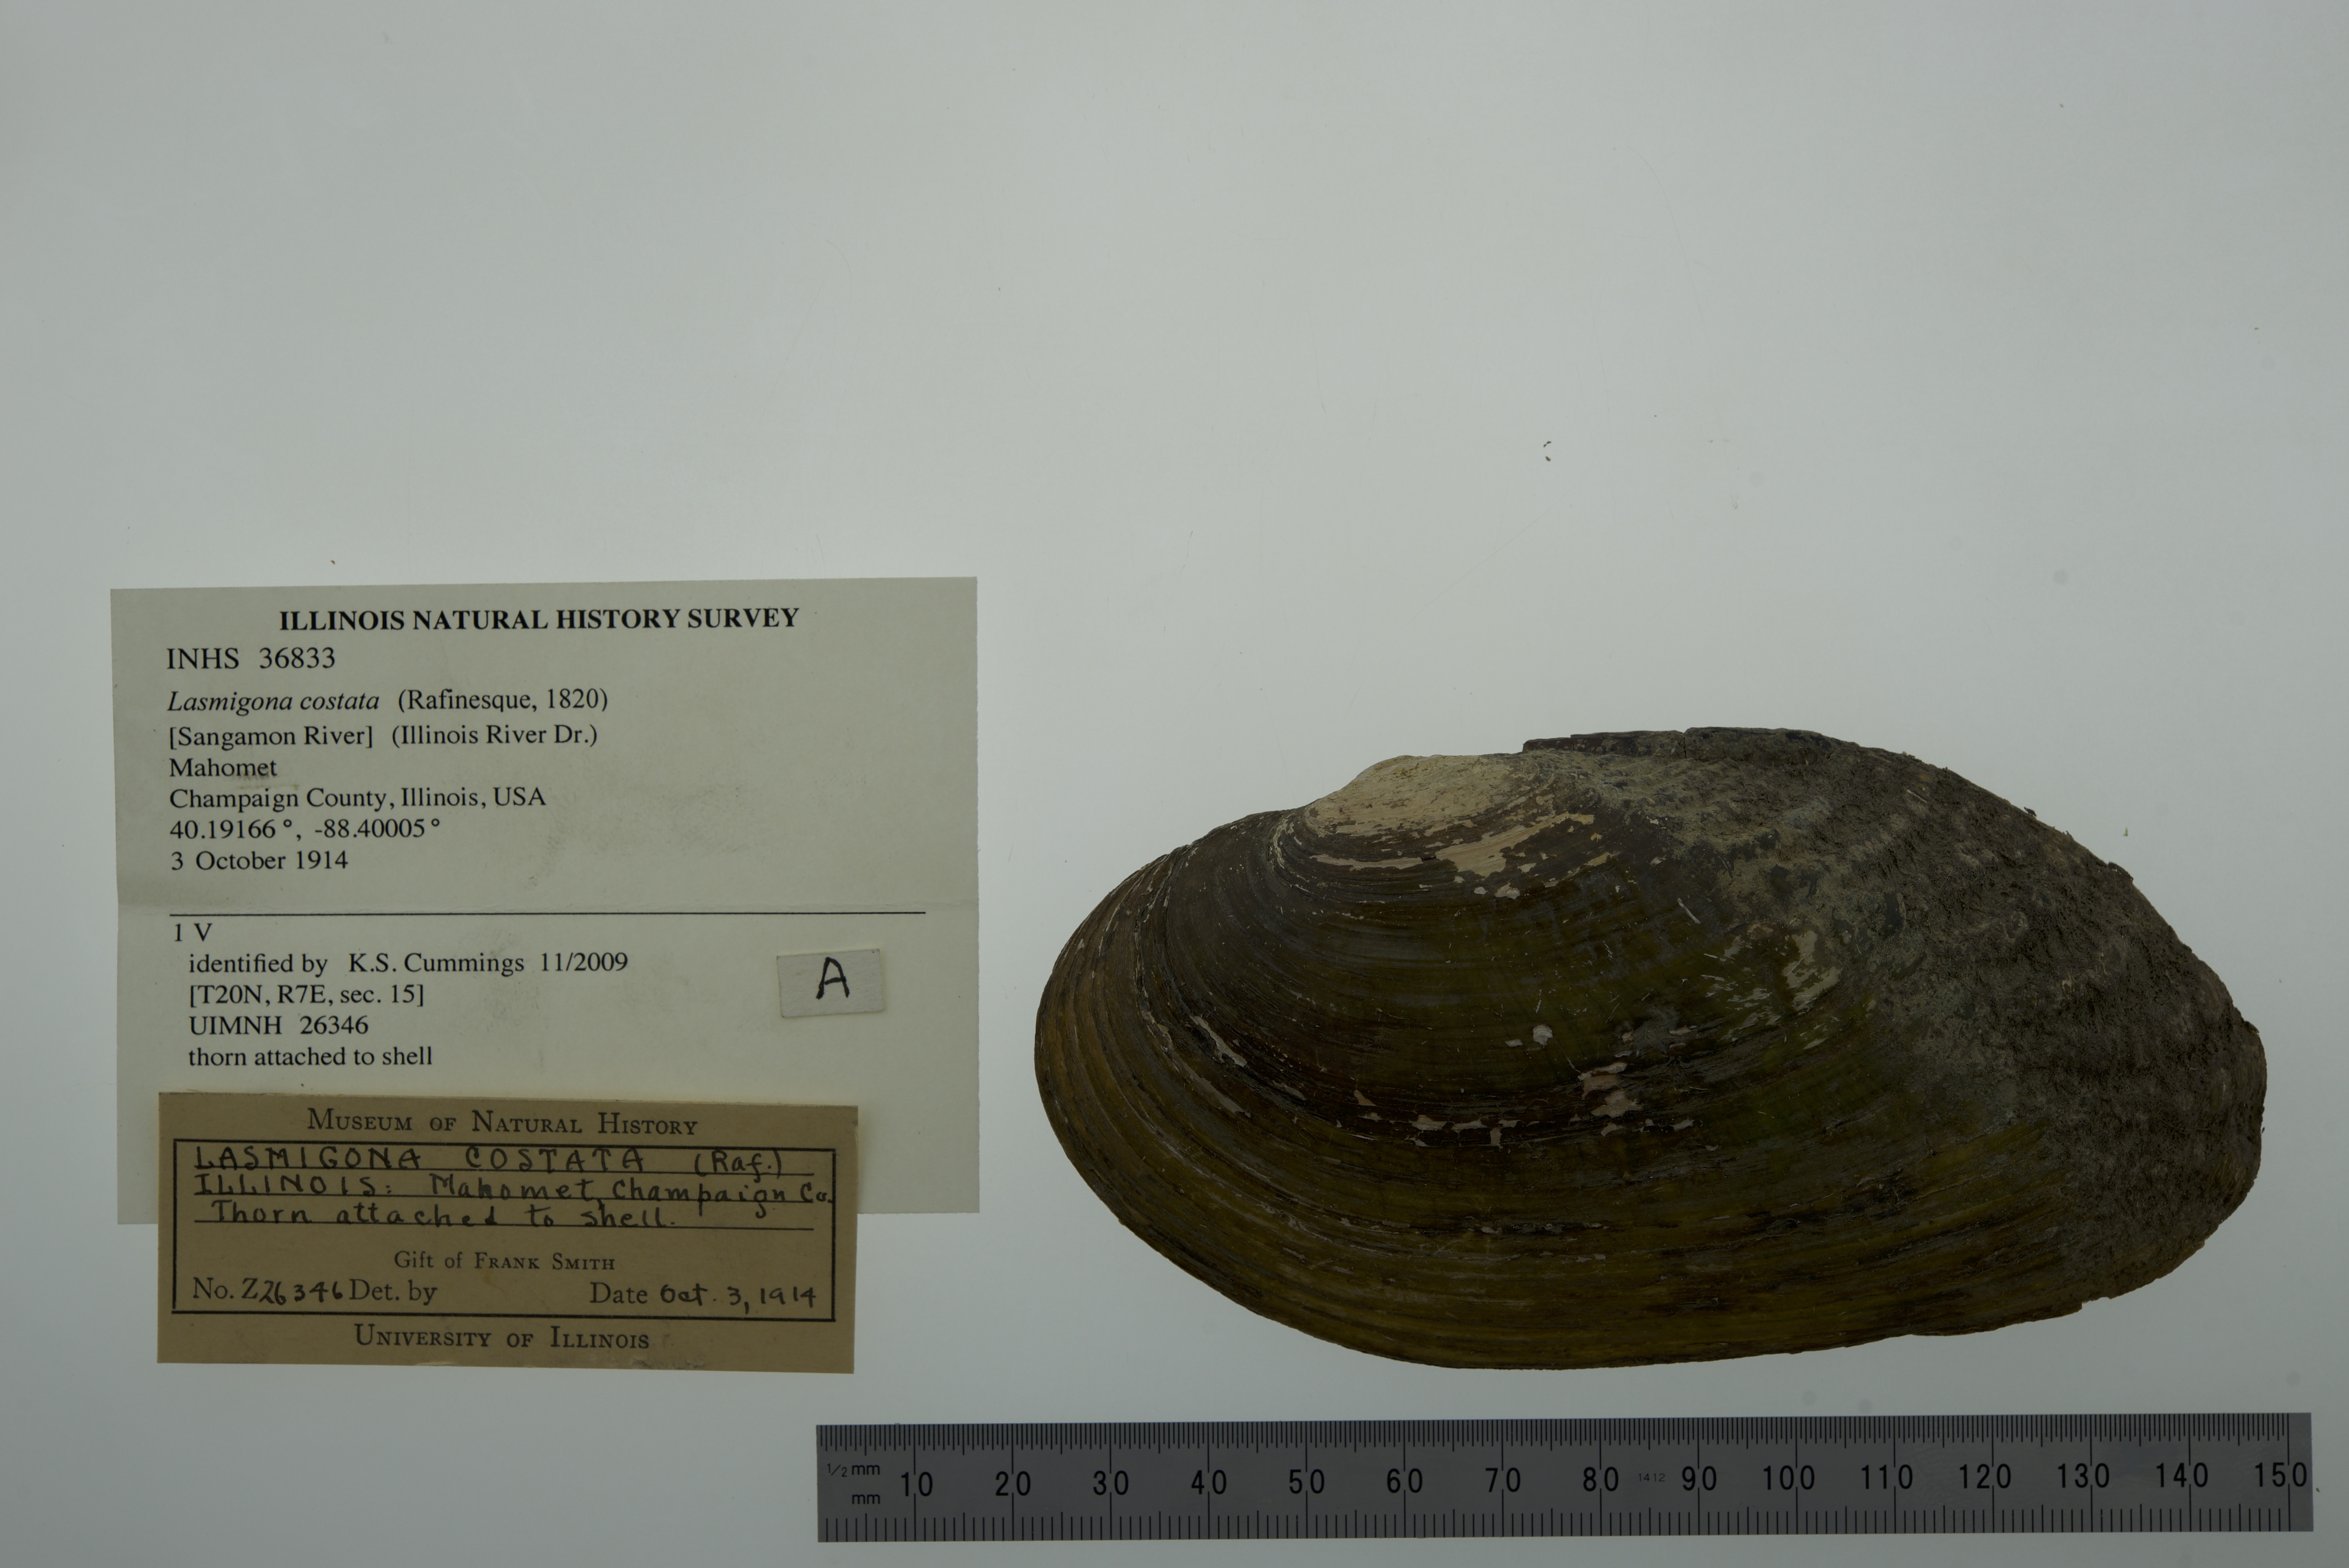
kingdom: Animalia
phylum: Mollusca
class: Bivalvia
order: Unionida
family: Unionidae
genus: Lasmigona
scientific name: Lasmigona costata
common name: Flutedshell
